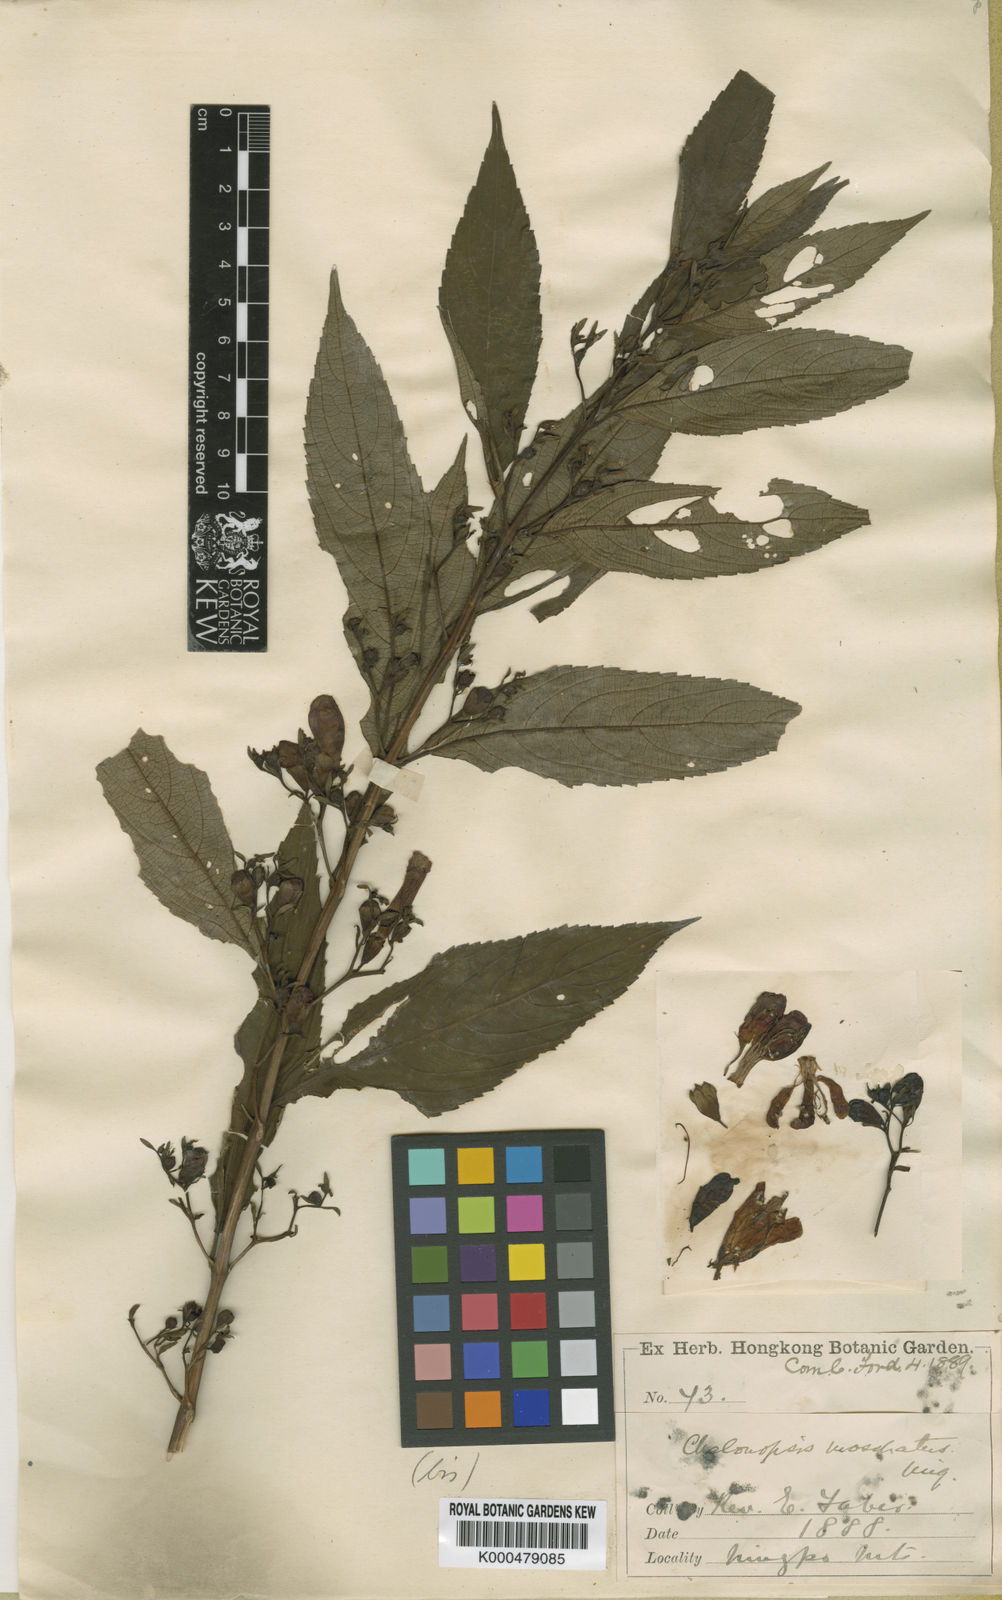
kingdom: Plantae
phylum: Tracheophyta
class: Magnoliopsida
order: Lamiales
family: Lamiaceae
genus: Chelonopsis
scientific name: Chelonopsis moschata
